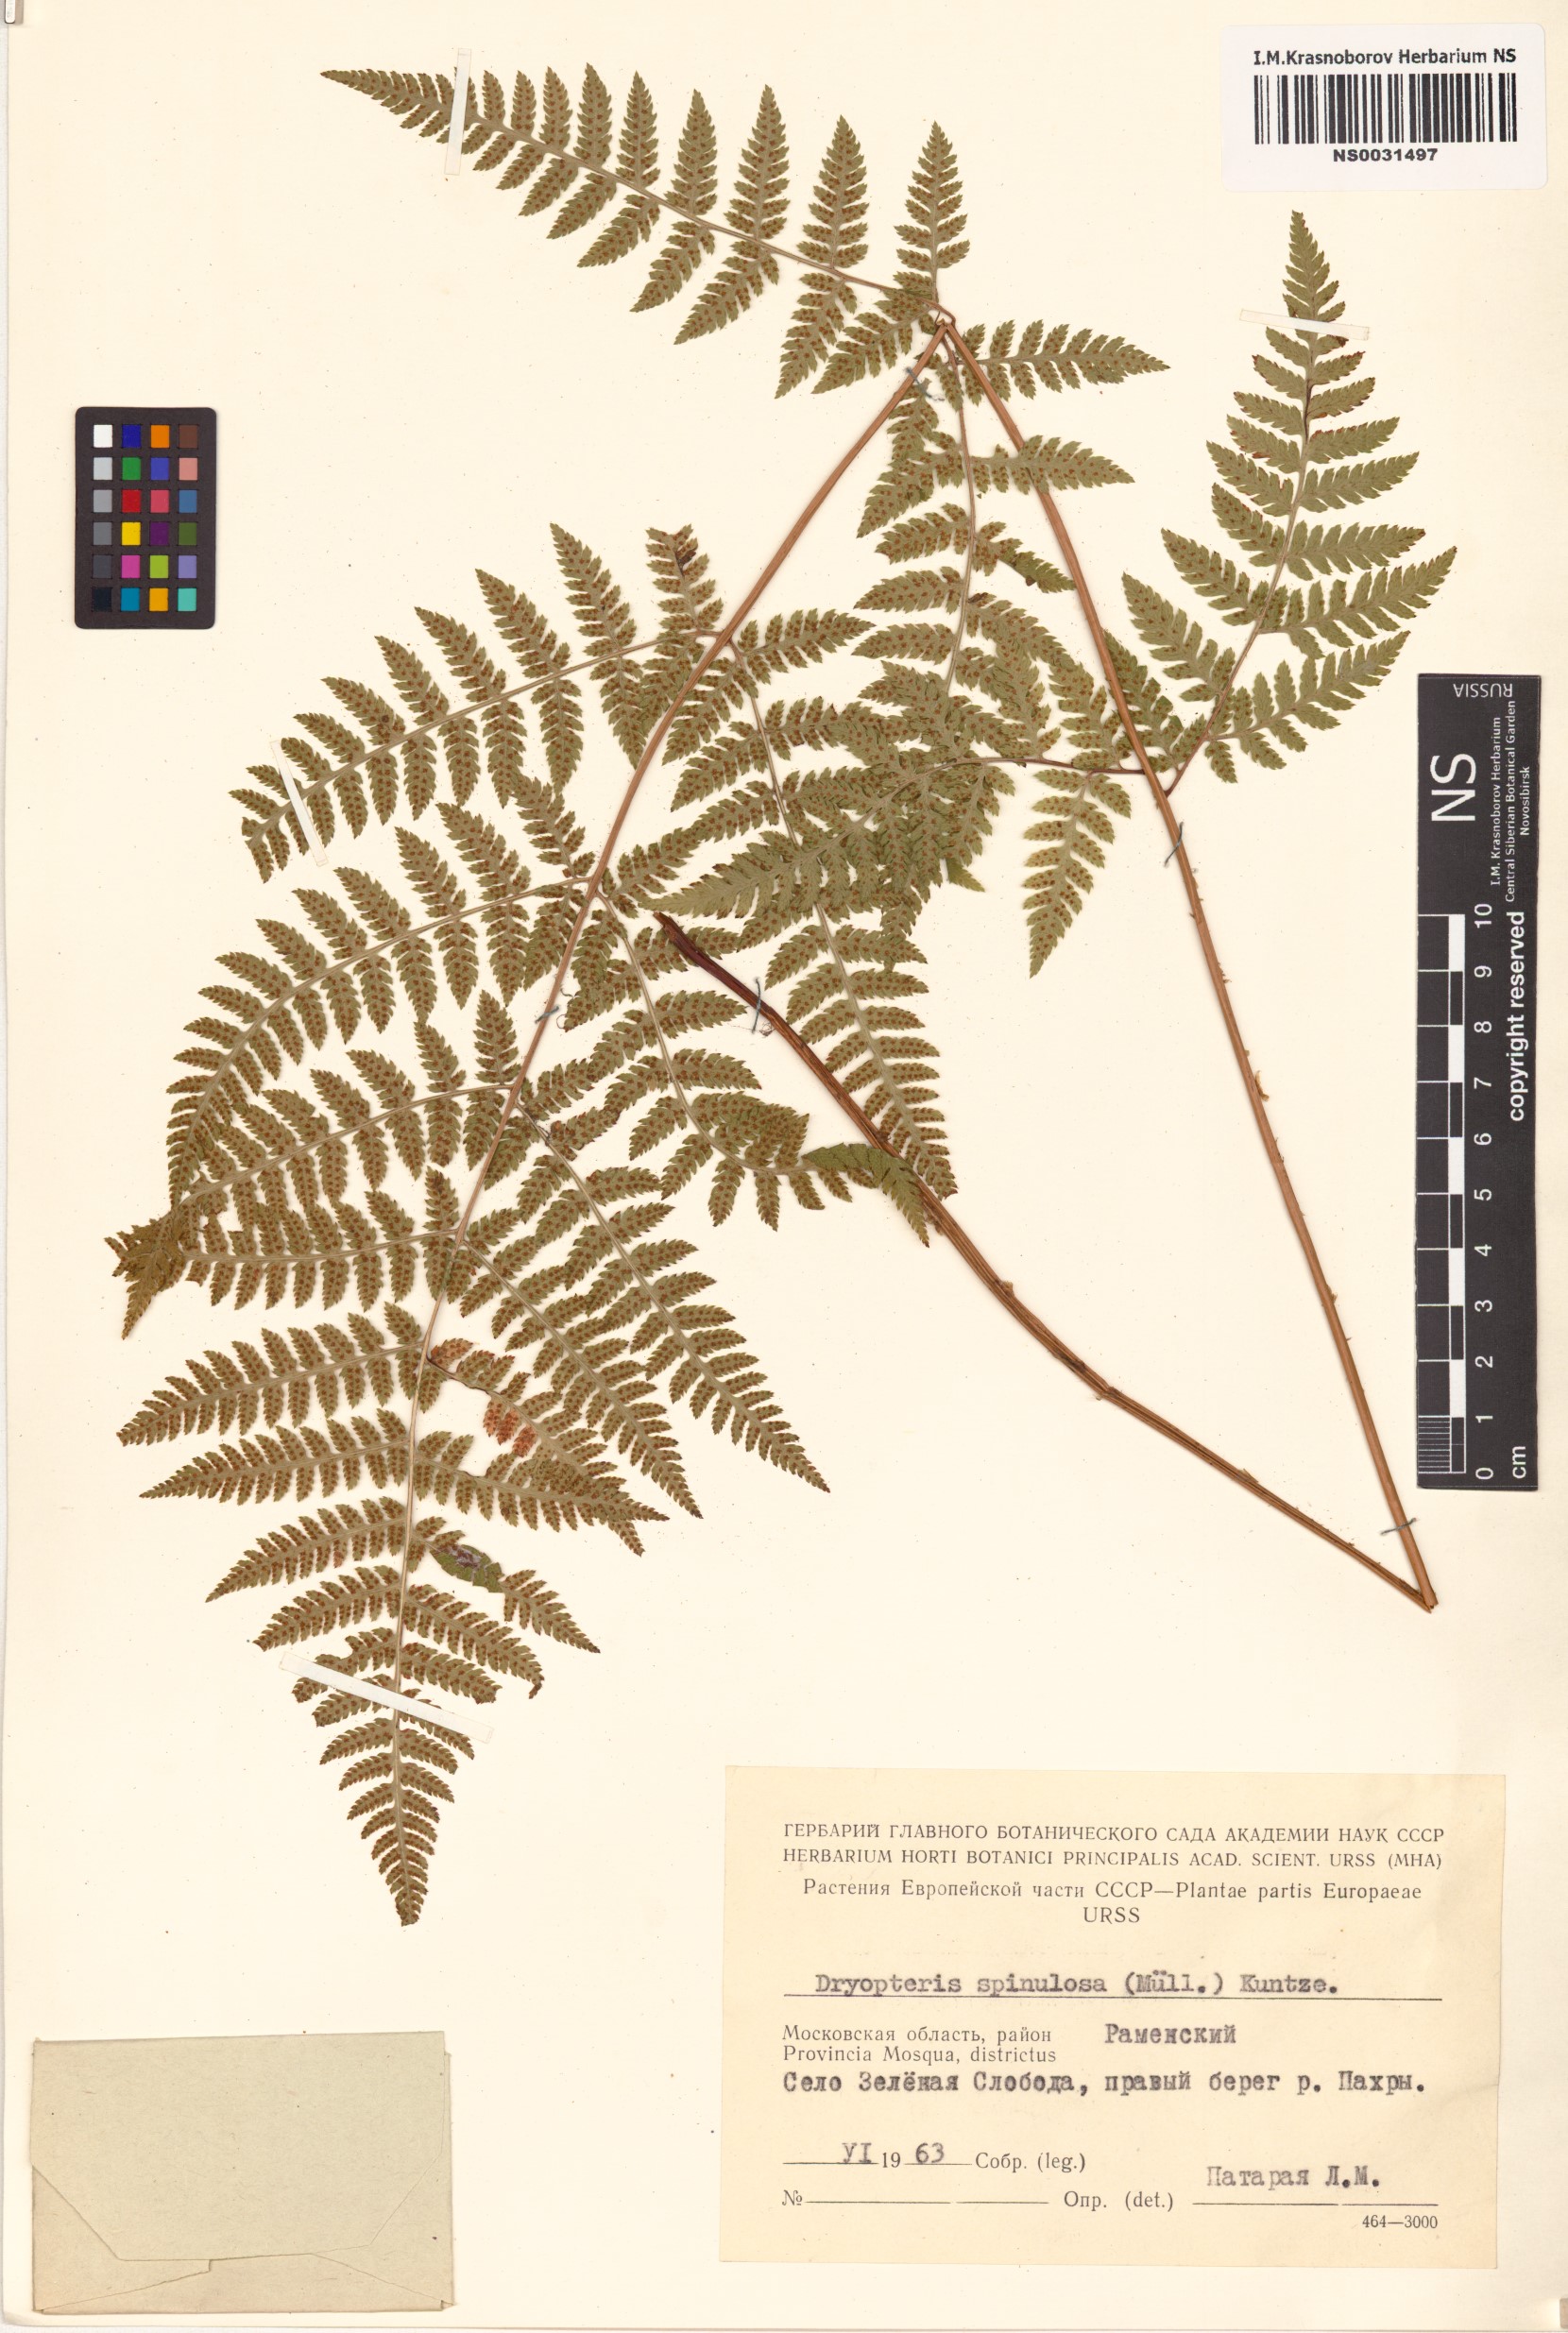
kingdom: Plantae
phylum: Tracheophyta
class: Polypodiopsida
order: Polypodiales
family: Dryopteridaceae
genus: Dryopteris
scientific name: Dryopteris carthusiana
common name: Narrow buckler-fern
